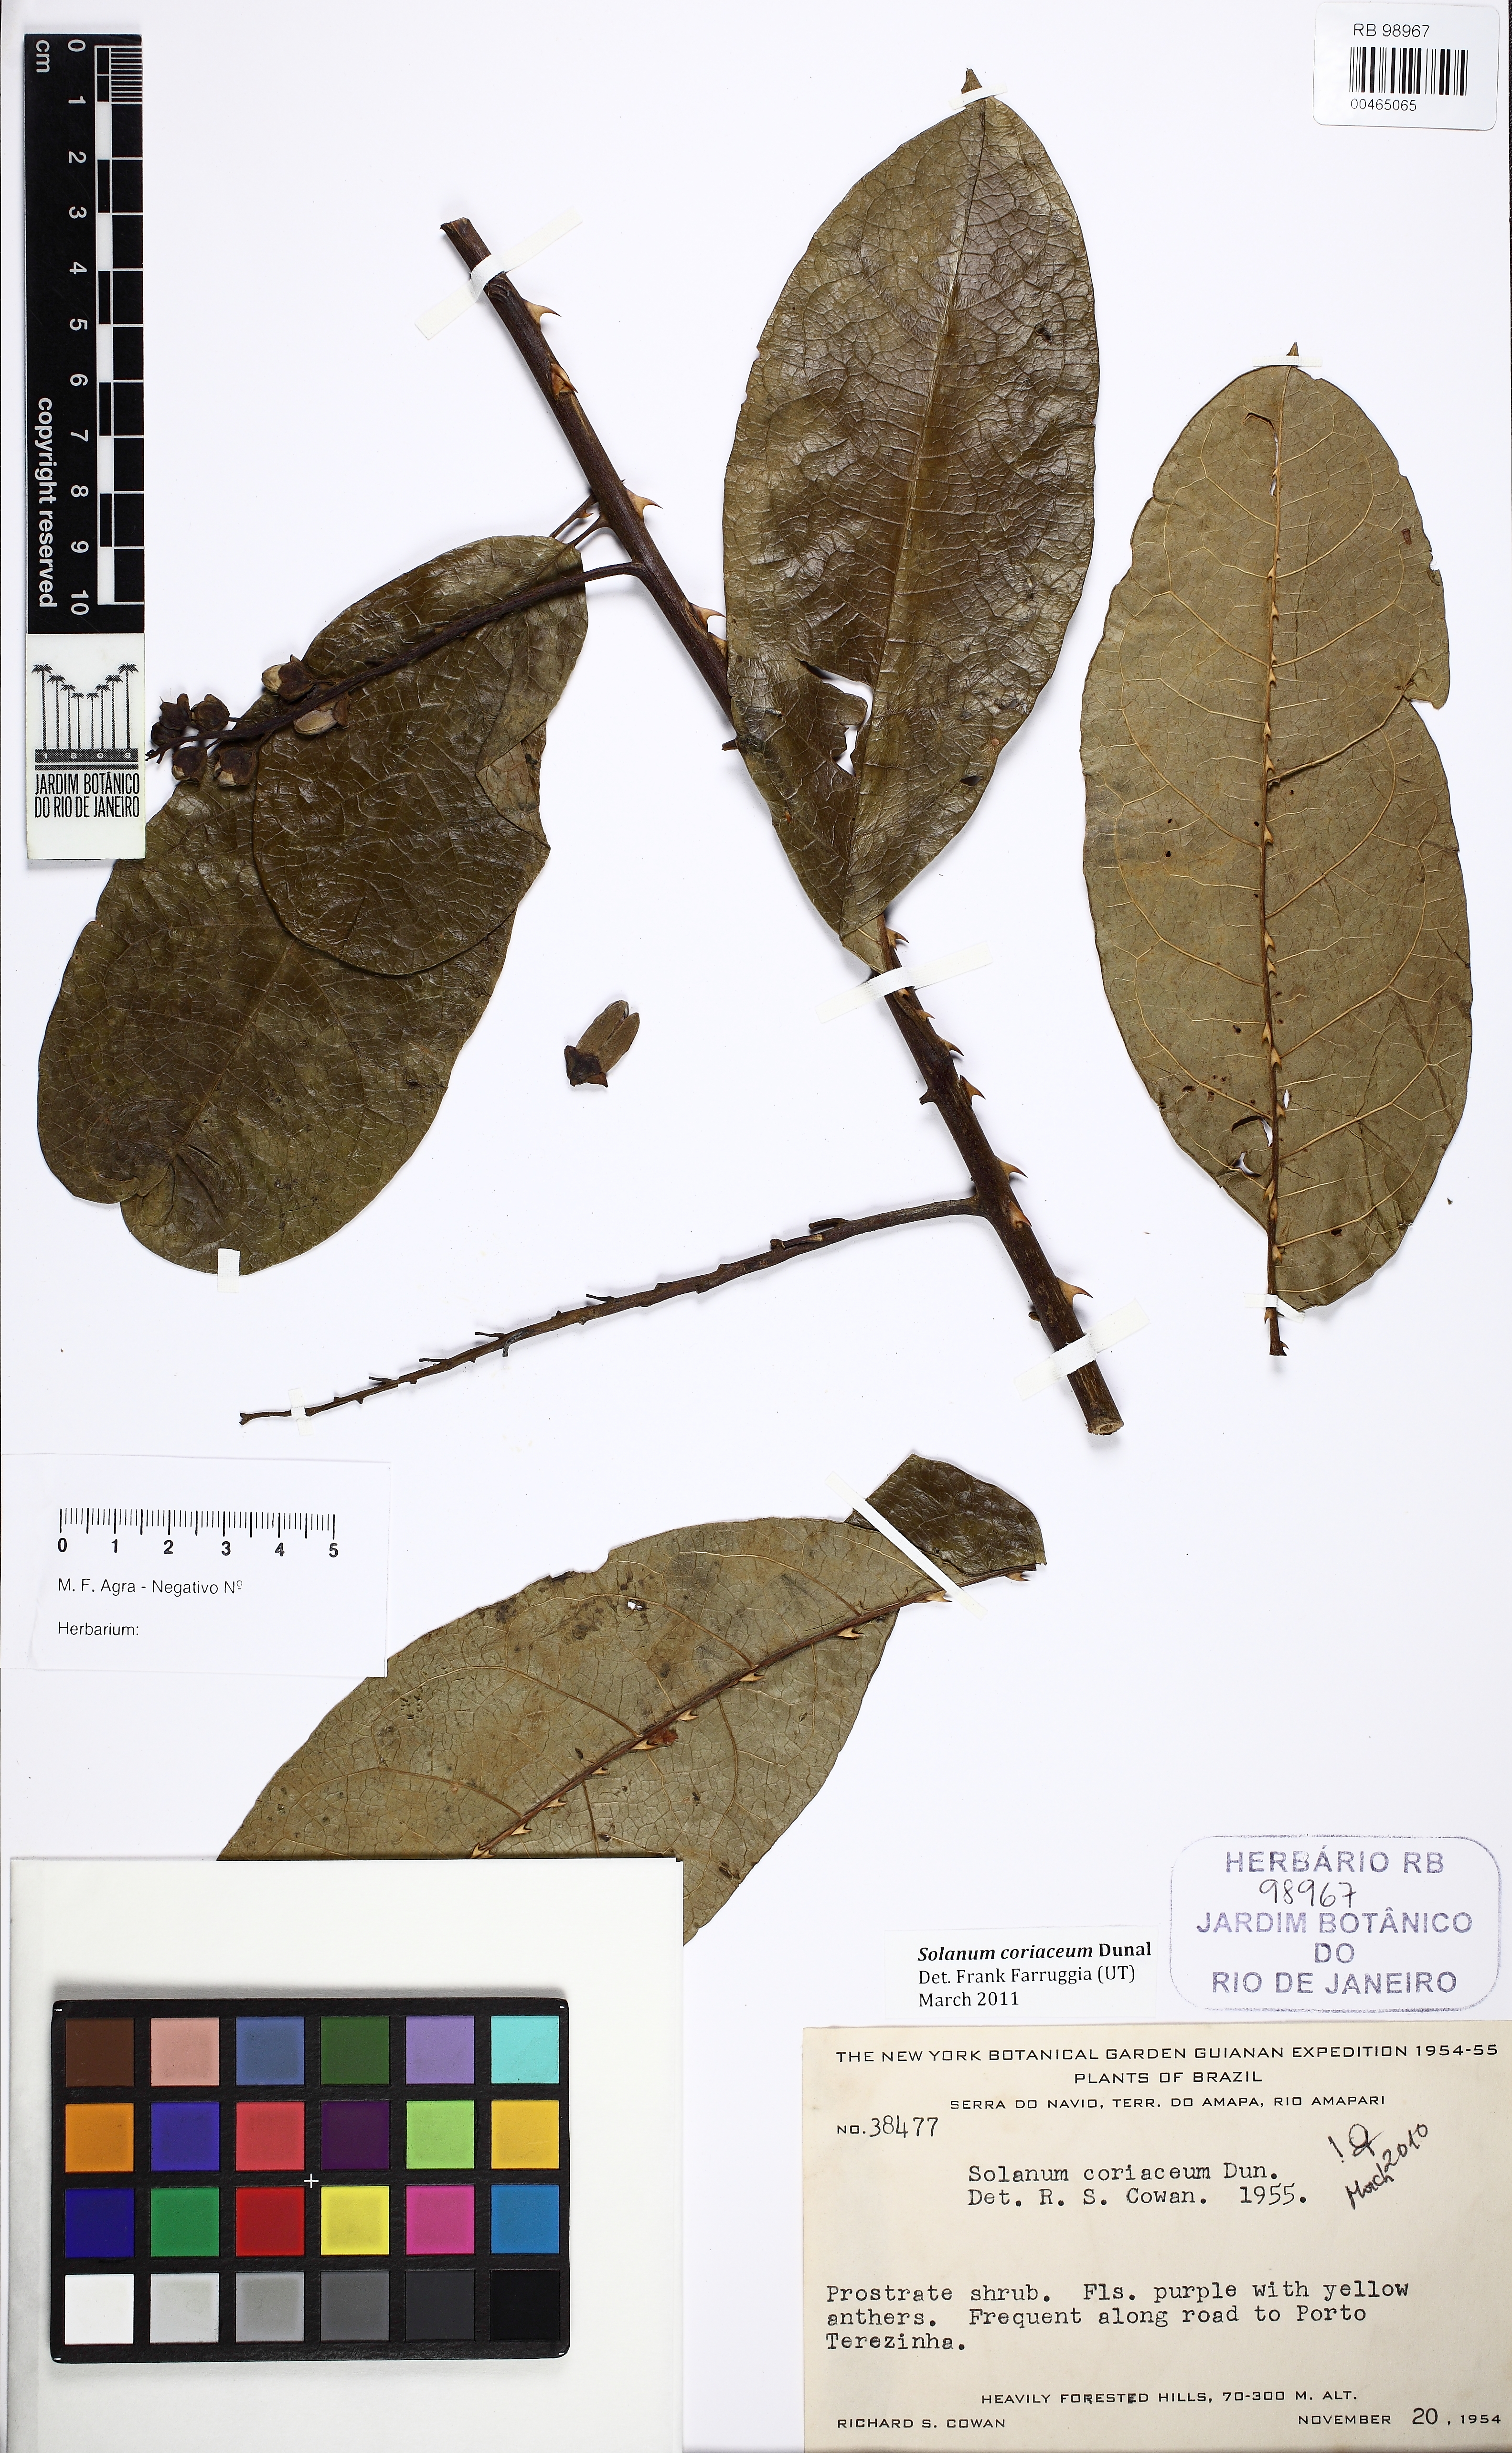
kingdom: Plantae
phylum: Tracheophyta
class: Magnoliopsida
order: Solanales
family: Solanaceae
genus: Solanum
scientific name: Solanum coriaceum
